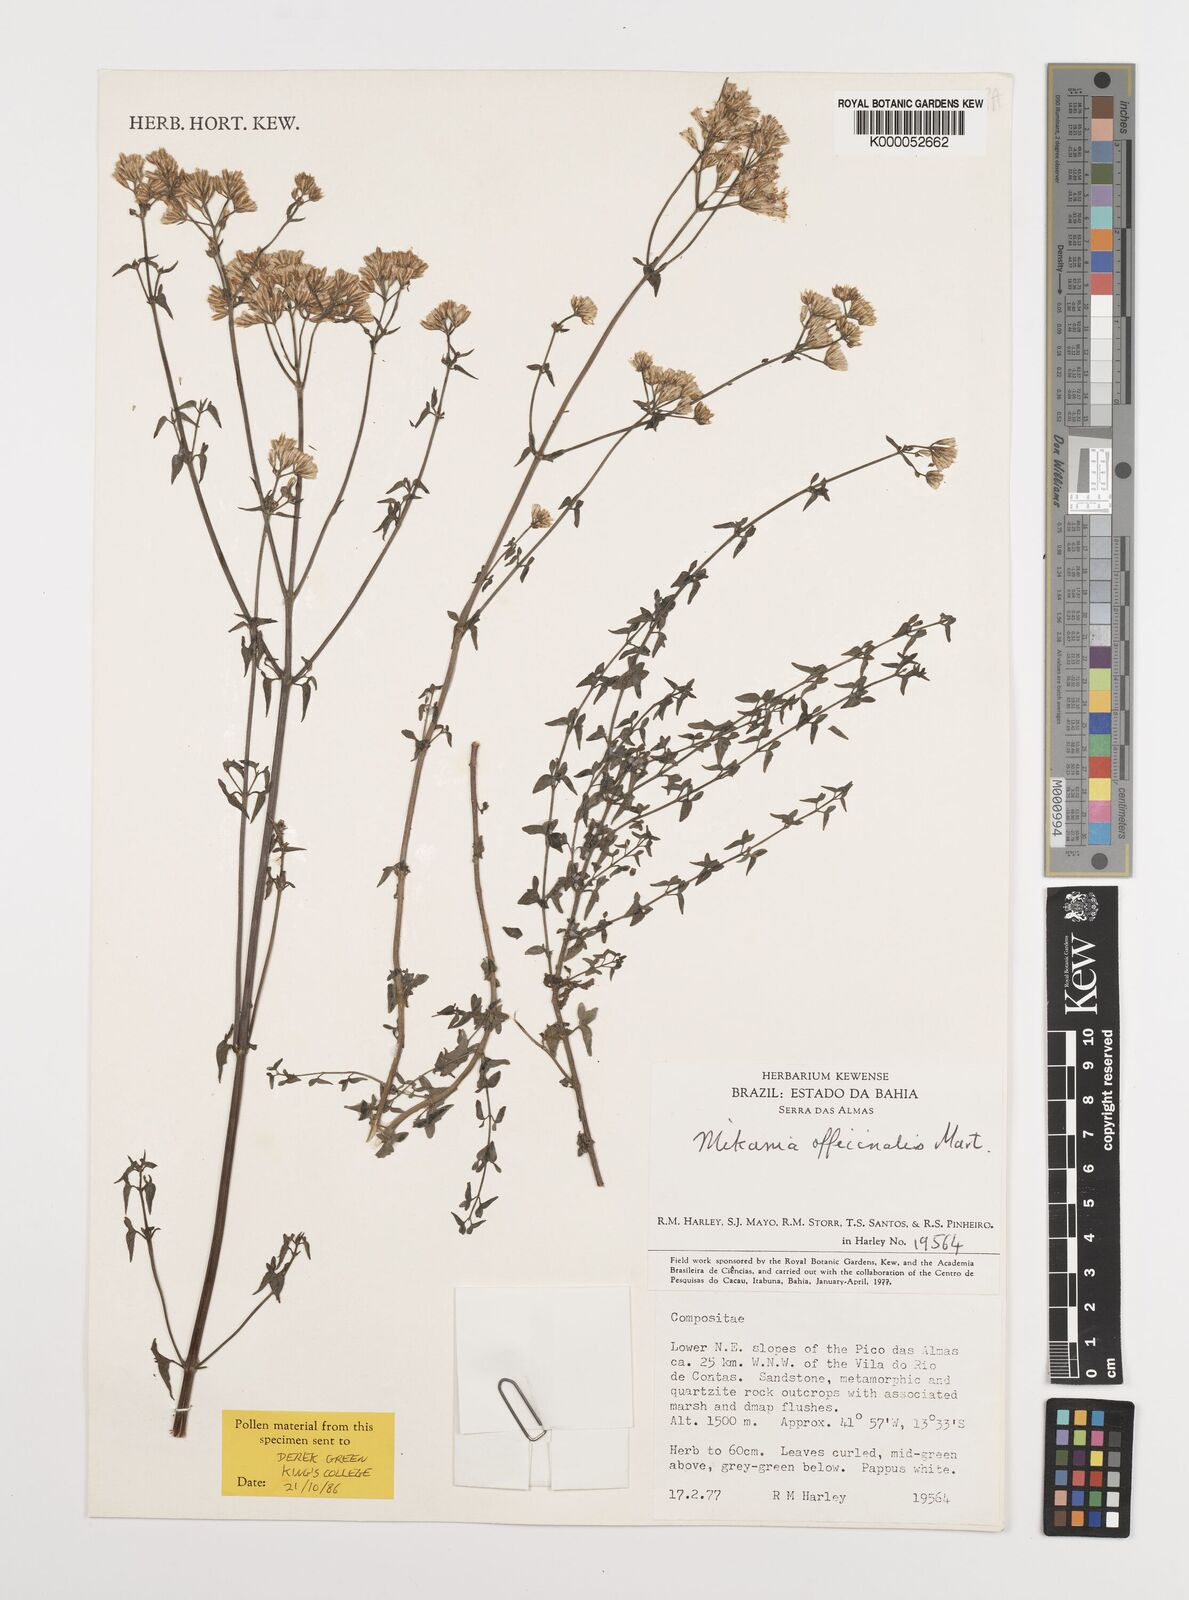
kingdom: Plantae
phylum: Tracheophyta
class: Magnoliopsida
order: Asterales
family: Asteraceae
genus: Mikania
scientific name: Mikania officinalis
